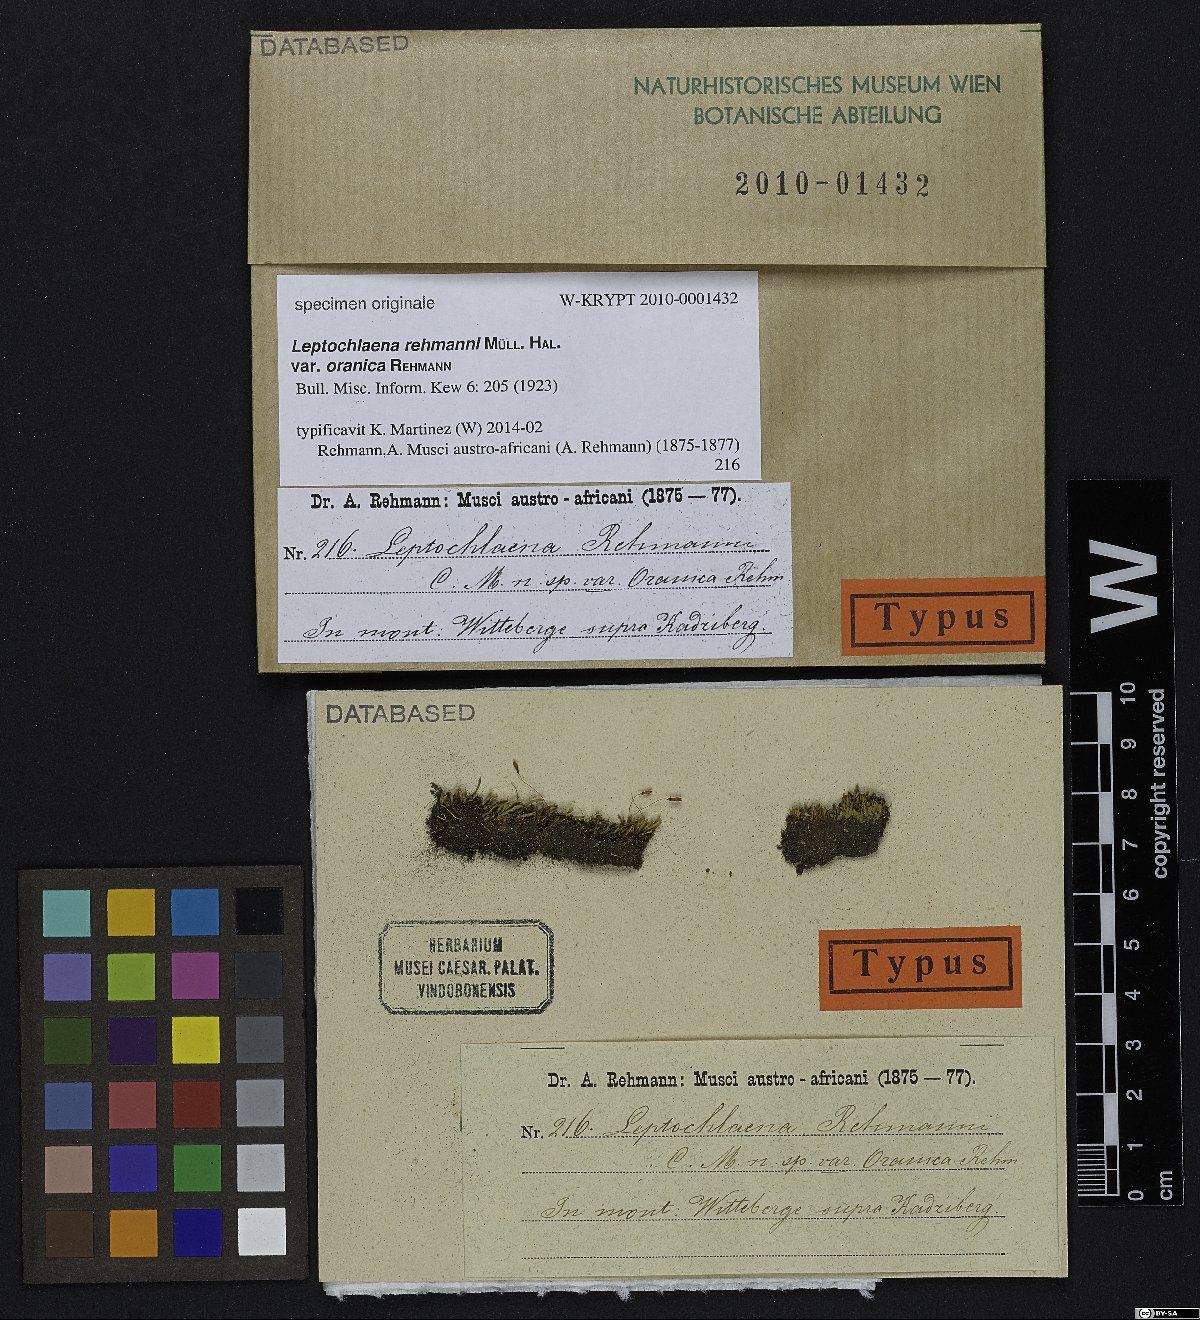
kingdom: Plantae
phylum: Bryophyta
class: Bryopsida
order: Bryales
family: Bryaceae
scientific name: Bryaceae
